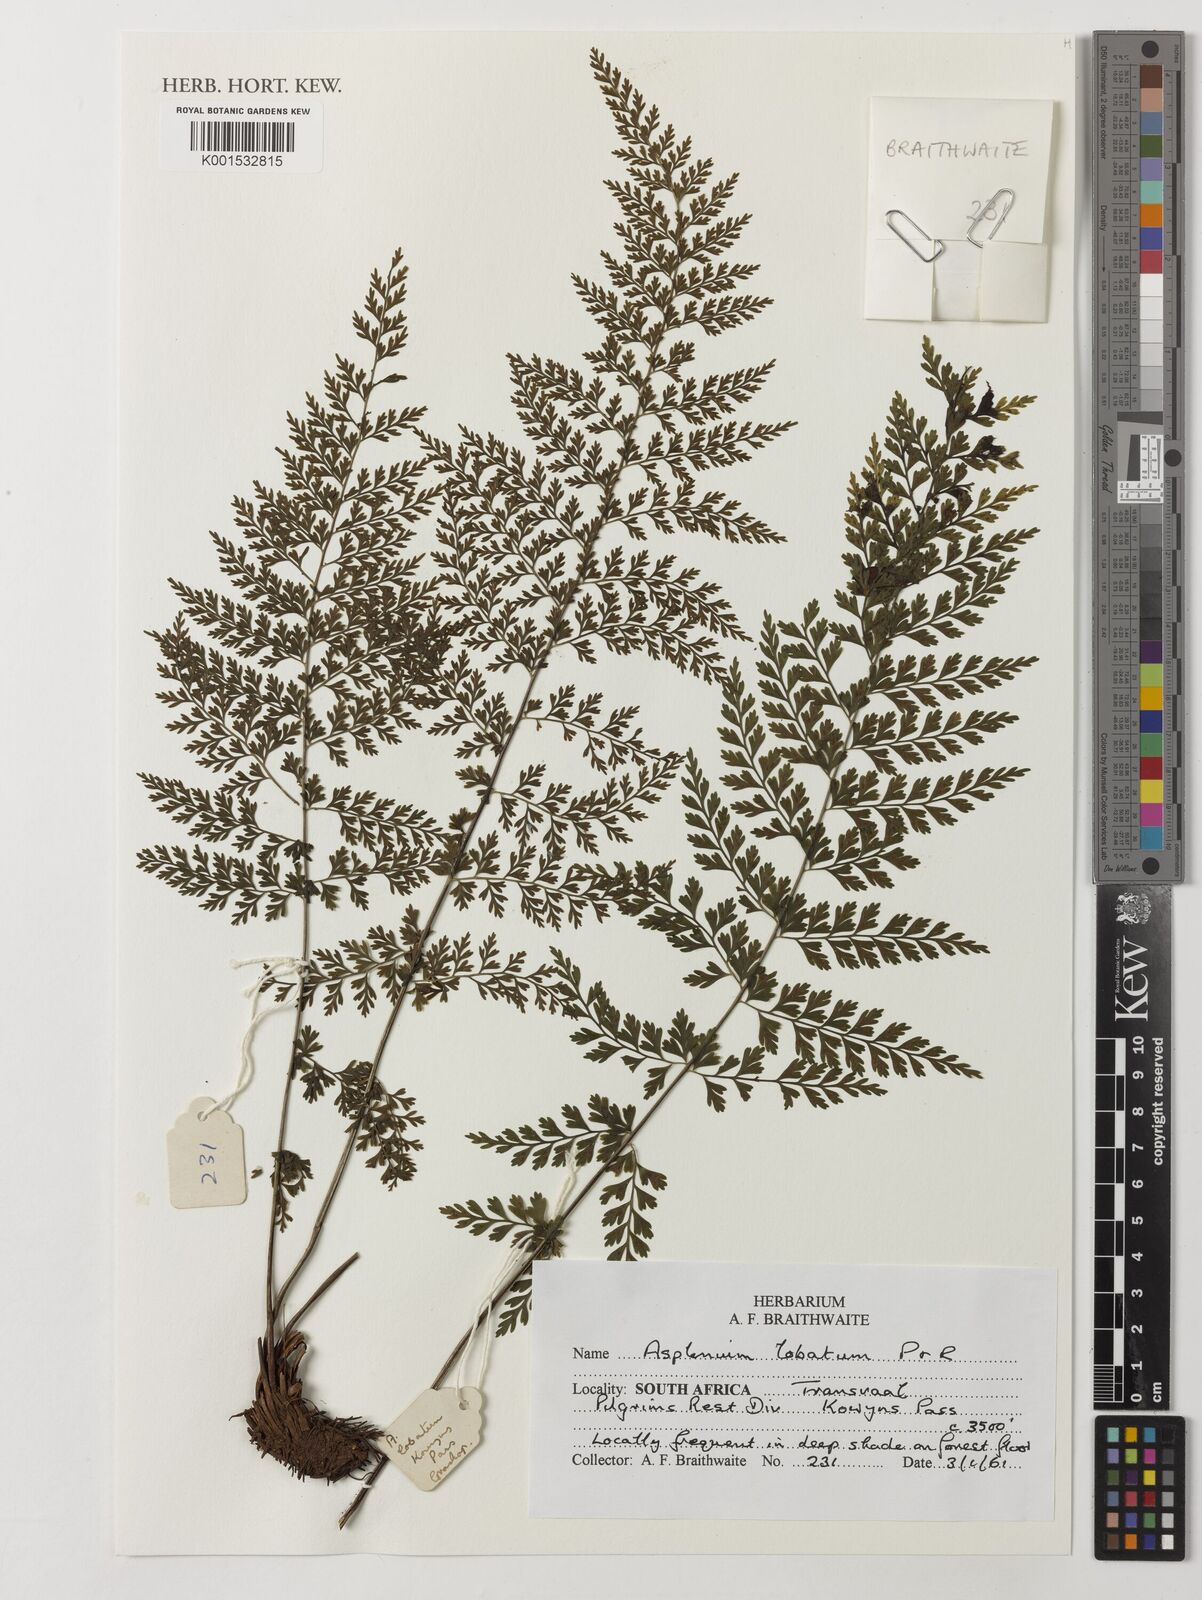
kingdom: Plantae
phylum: Tracheophyta
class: Polypodiopsida
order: Polypodiales
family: Aspleniaceae
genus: Asplenium
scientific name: Asplenium lobatum
